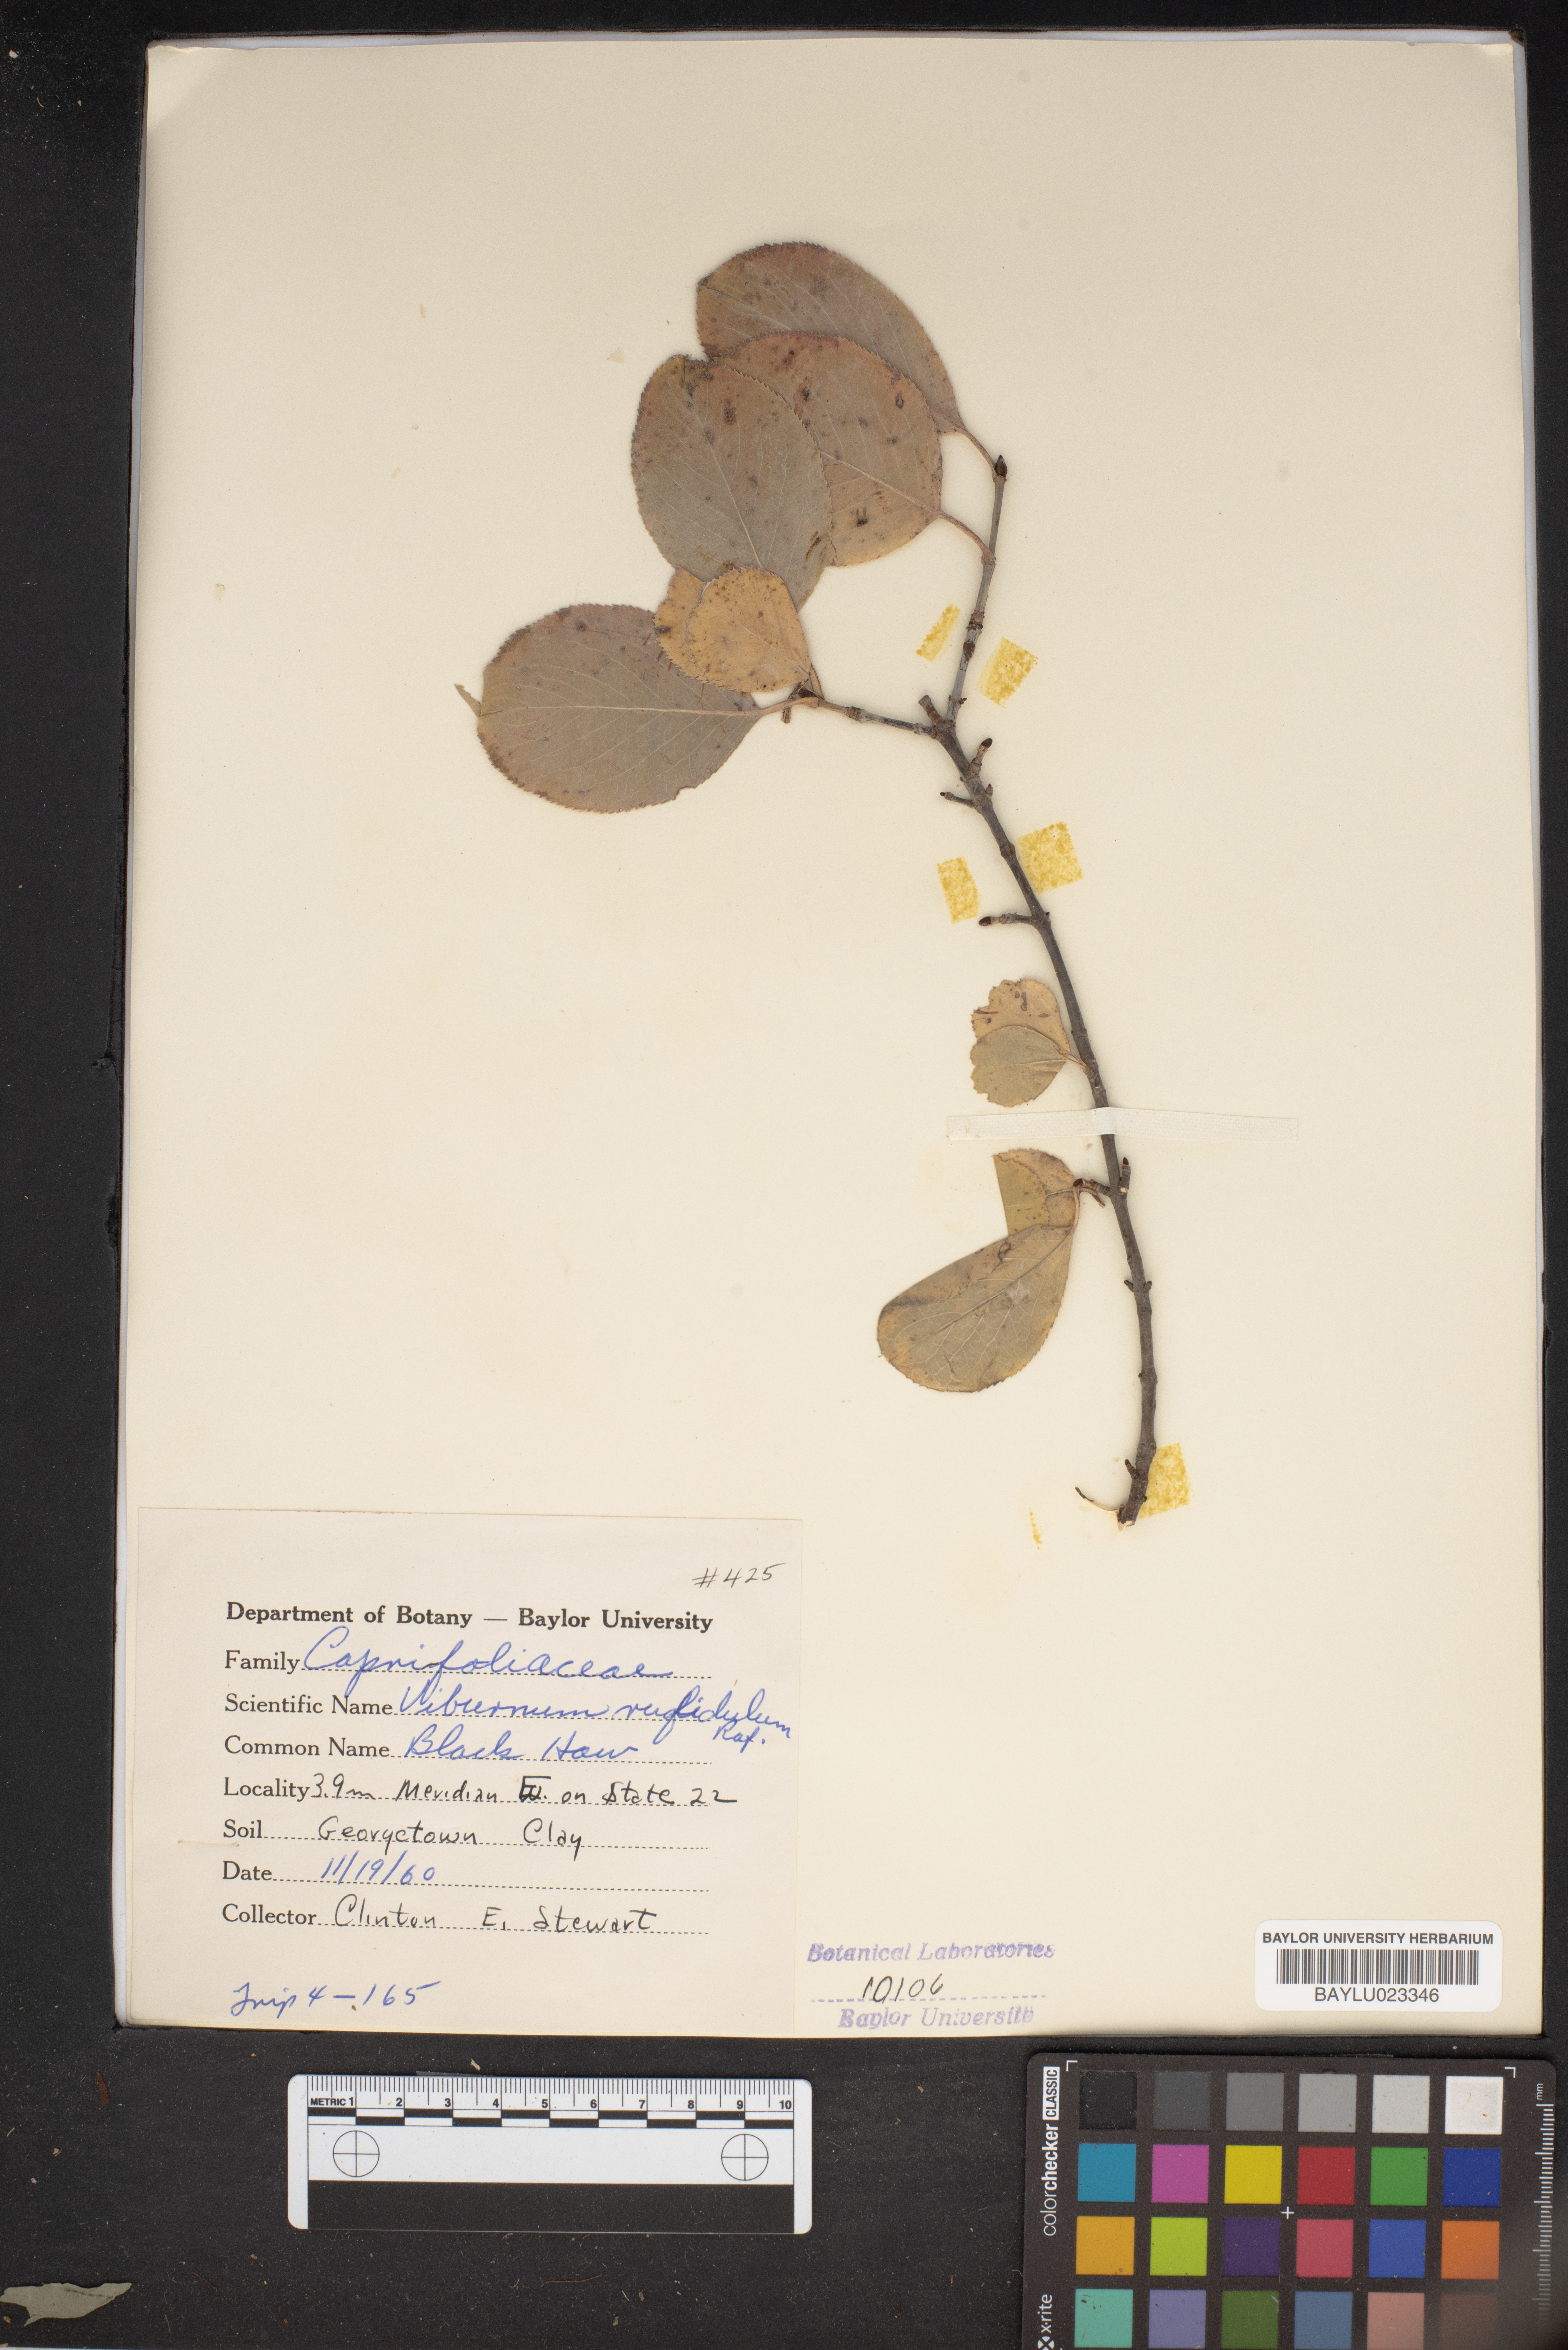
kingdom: Plantae
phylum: Tracheophyta
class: Magnoliopsida
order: Dipsacales
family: Viburnaceae
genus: Viburnum
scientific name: Viburnum rufidulum
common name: Blue haw
